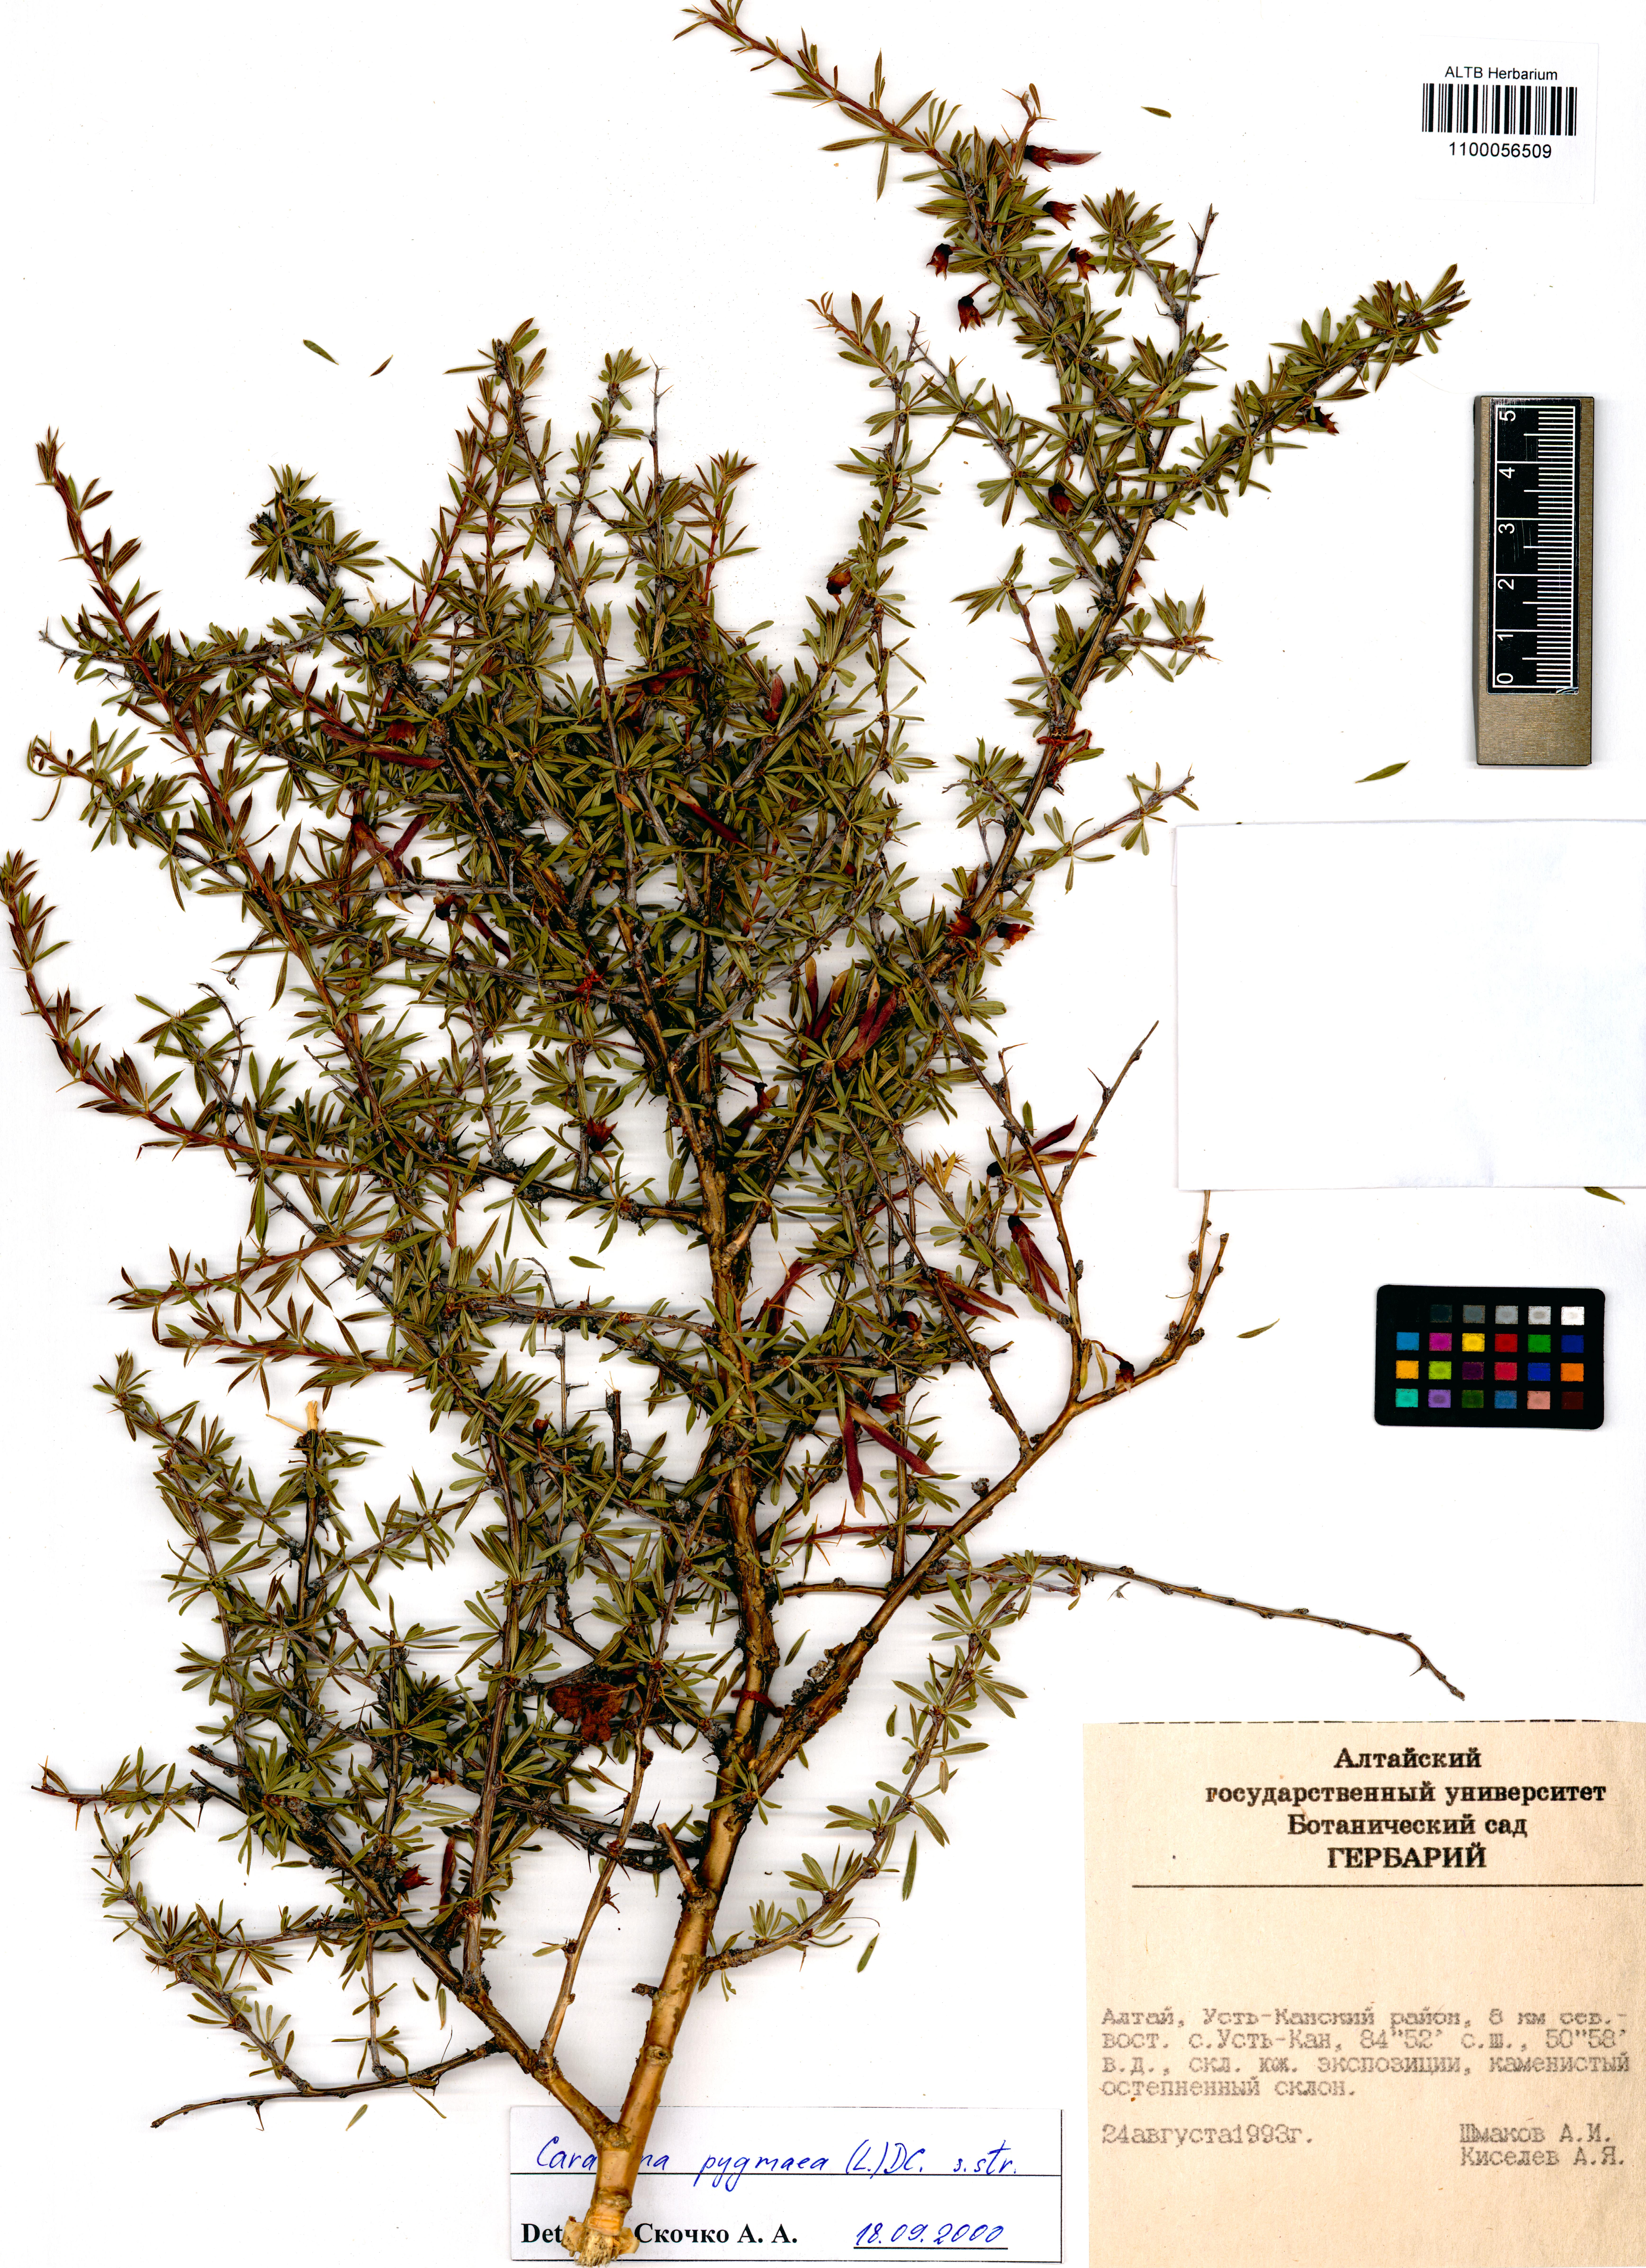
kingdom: Plantae
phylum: Tracheophyta
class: Magnoliopsida
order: Fabales
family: Fabaceae
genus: Caragana
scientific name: Caragana pygmaea
